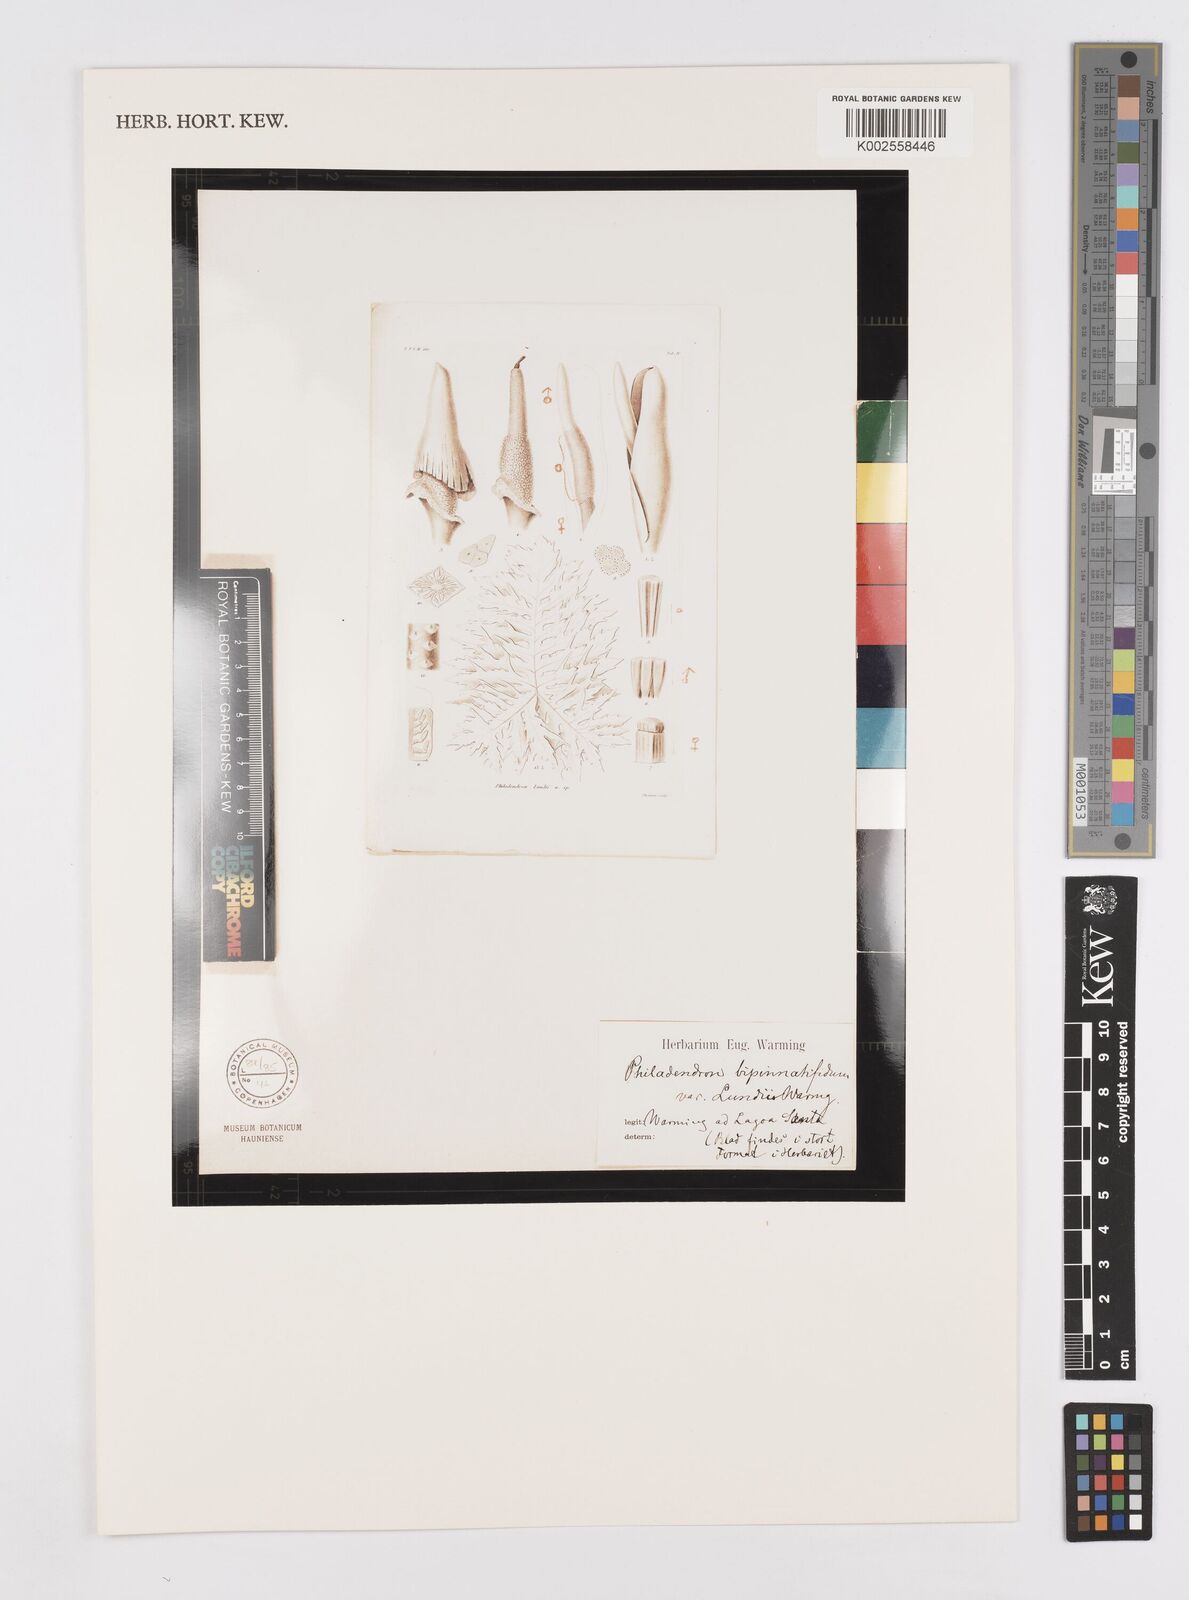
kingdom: Plantae
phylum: Tracheophyta
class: Liliopsida
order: Alismatales
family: Araceae
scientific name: Araceae
